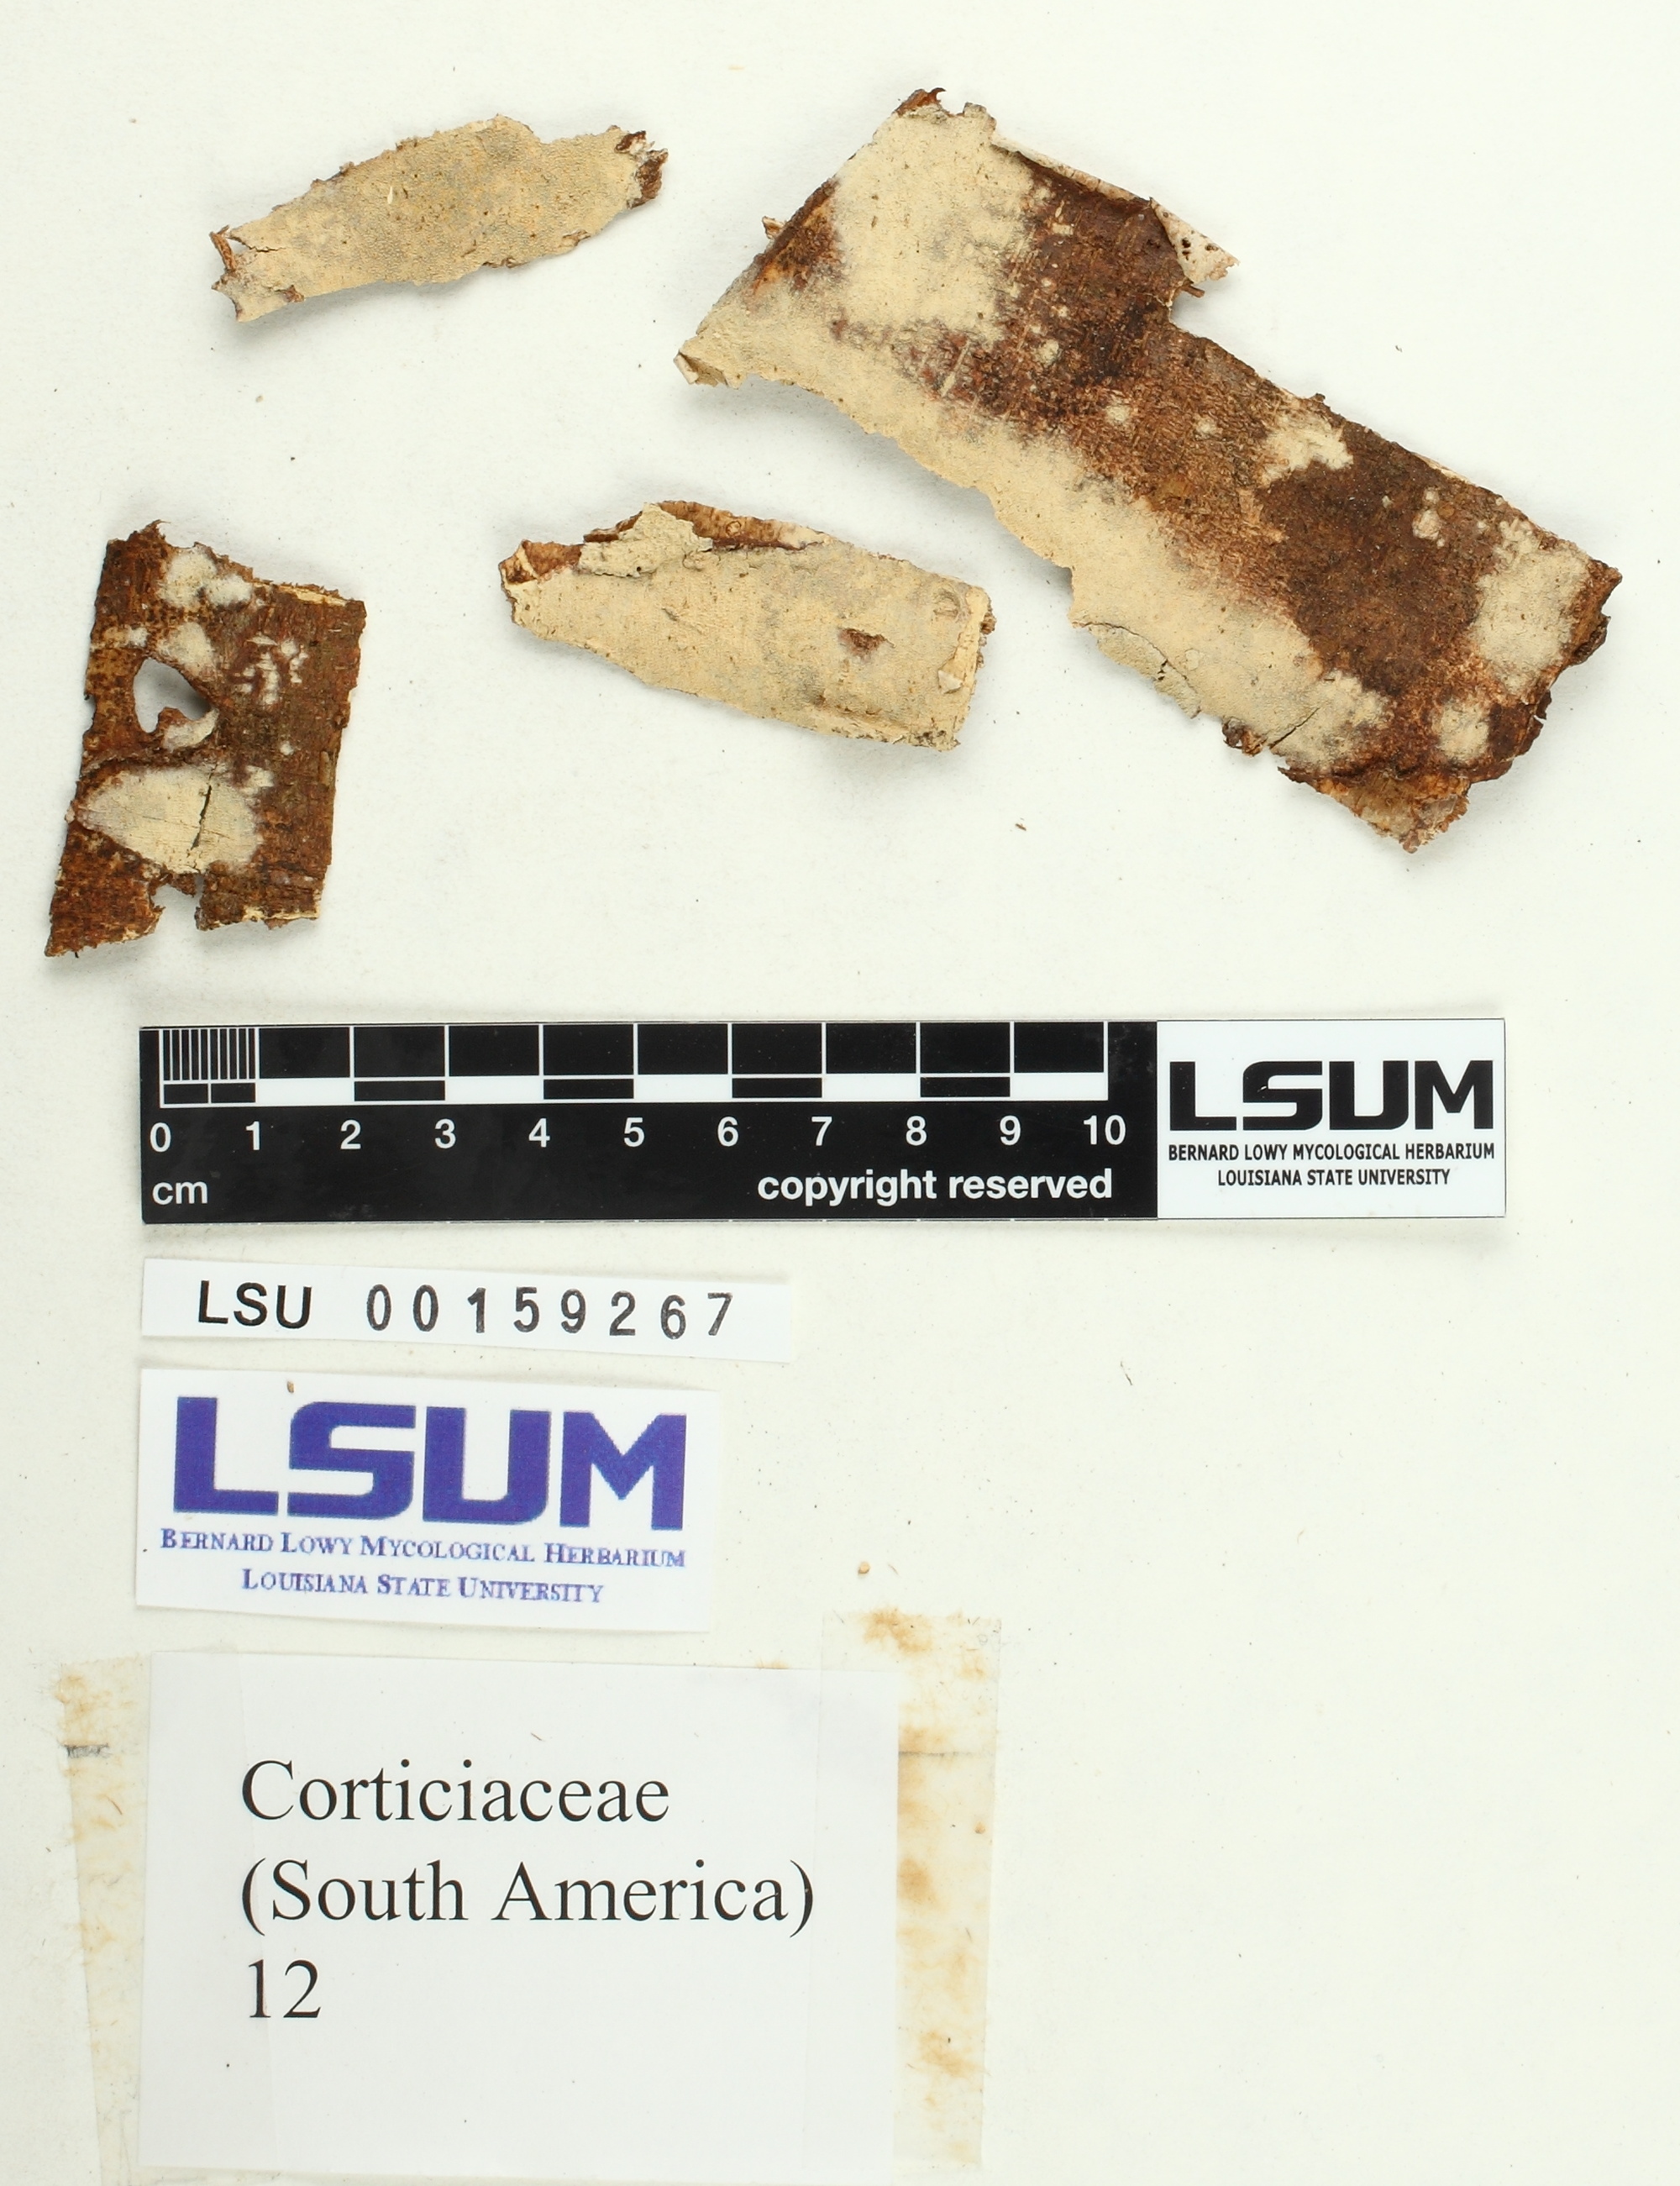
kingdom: Fungi
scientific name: Fungi
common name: Fungi
